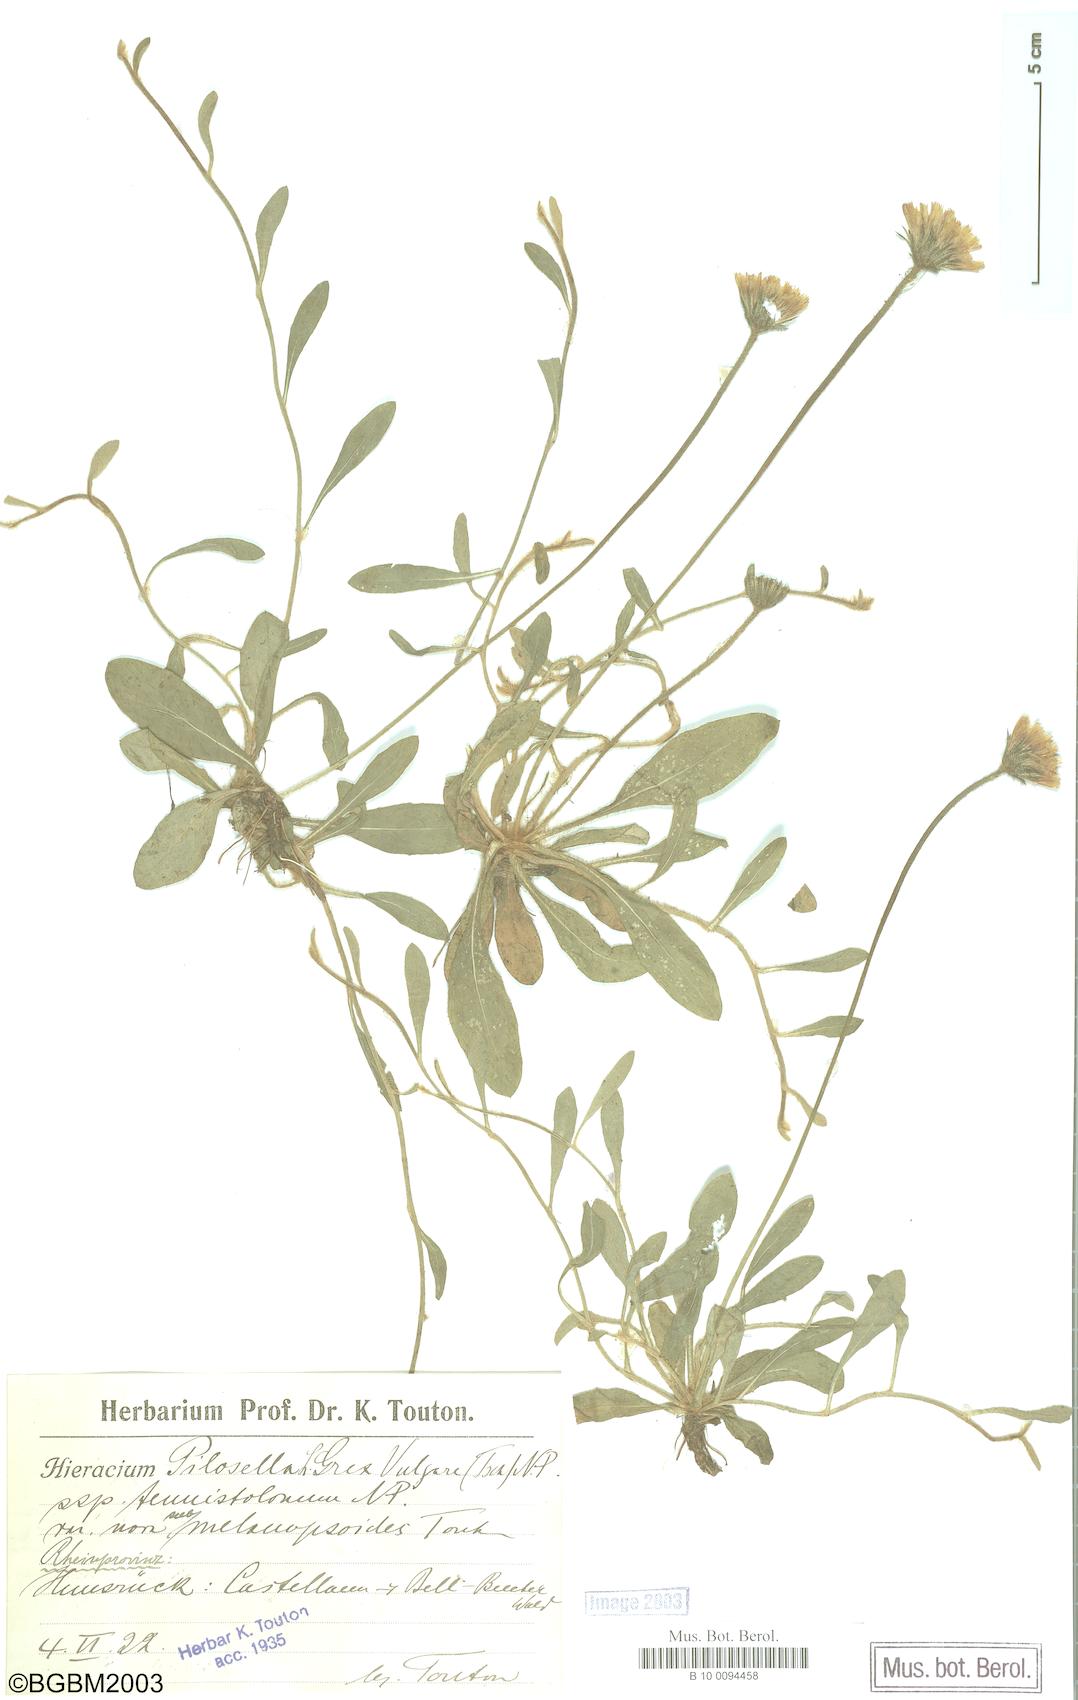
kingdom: Plantae
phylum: Tracheophyta
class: Magnoliopsida
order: Asterales
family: Asteraceae
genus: Pilosella
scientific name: Pilosella officinarum
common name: Mouse-ear hawkweed
